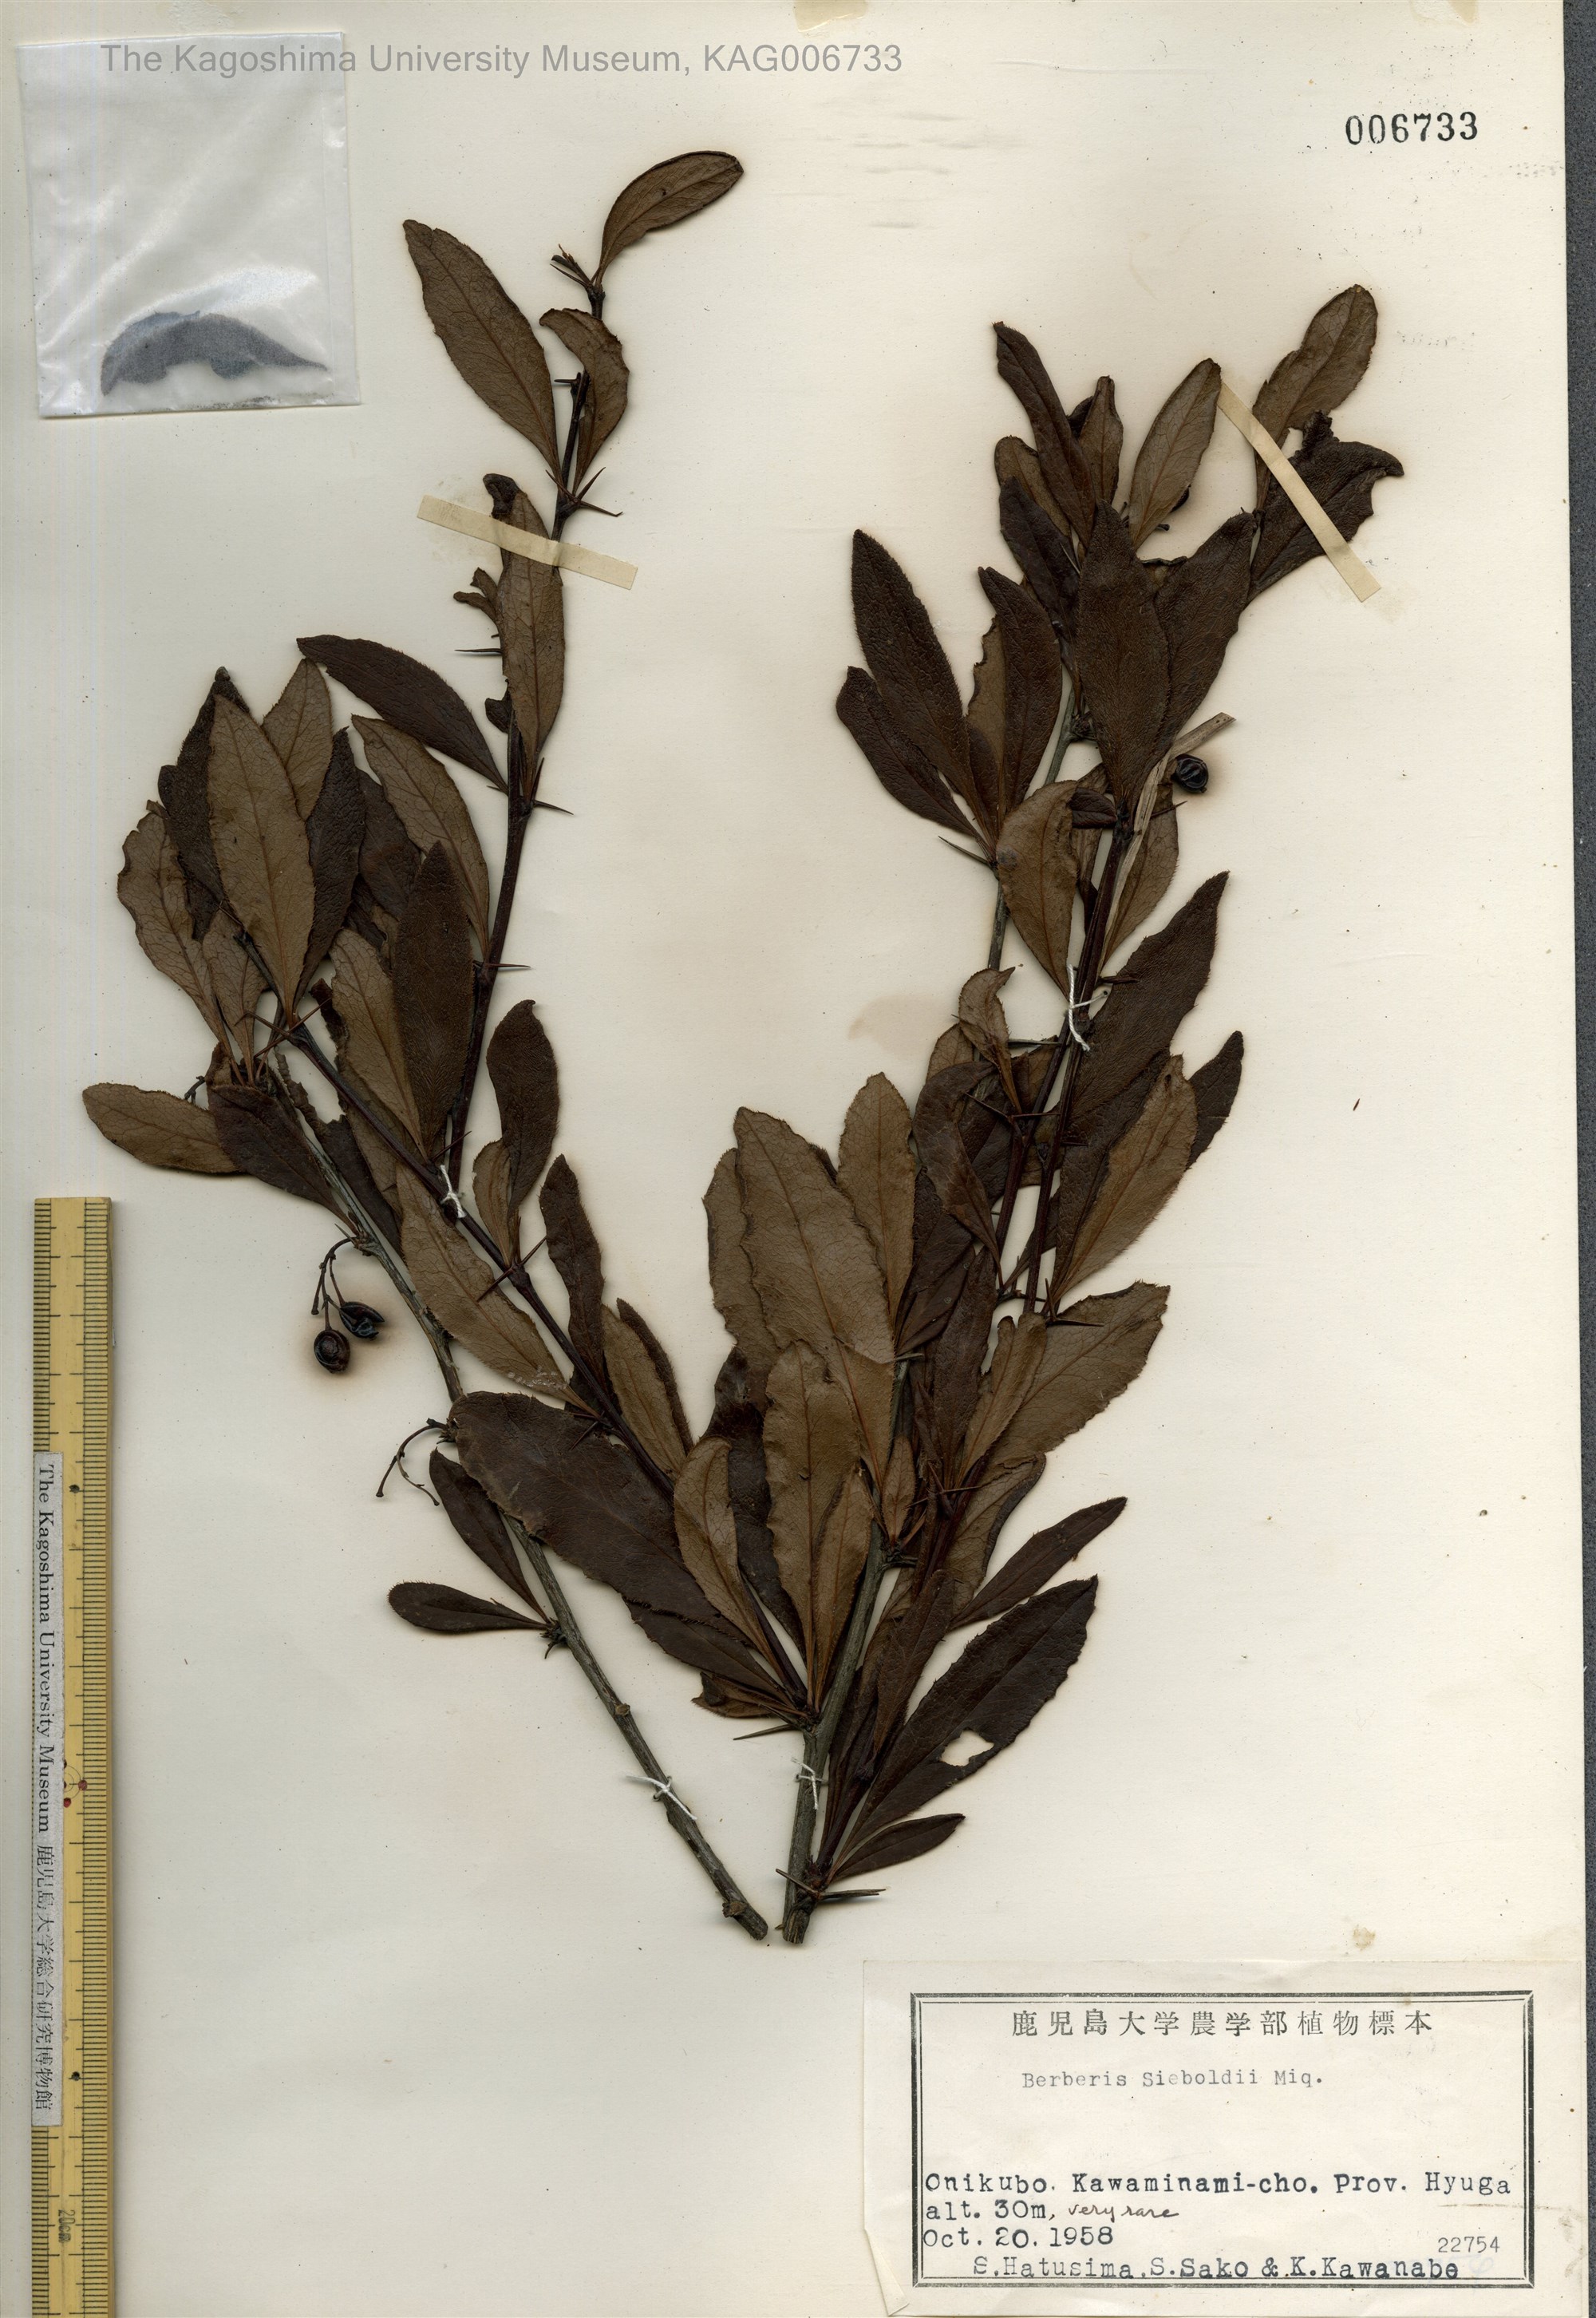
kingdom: Plantae
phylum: Tracheophyta
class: Magnoliopsida
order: Ranunculales
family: Berberidaceae
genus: Berberis
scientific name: Berberis sieboldii
